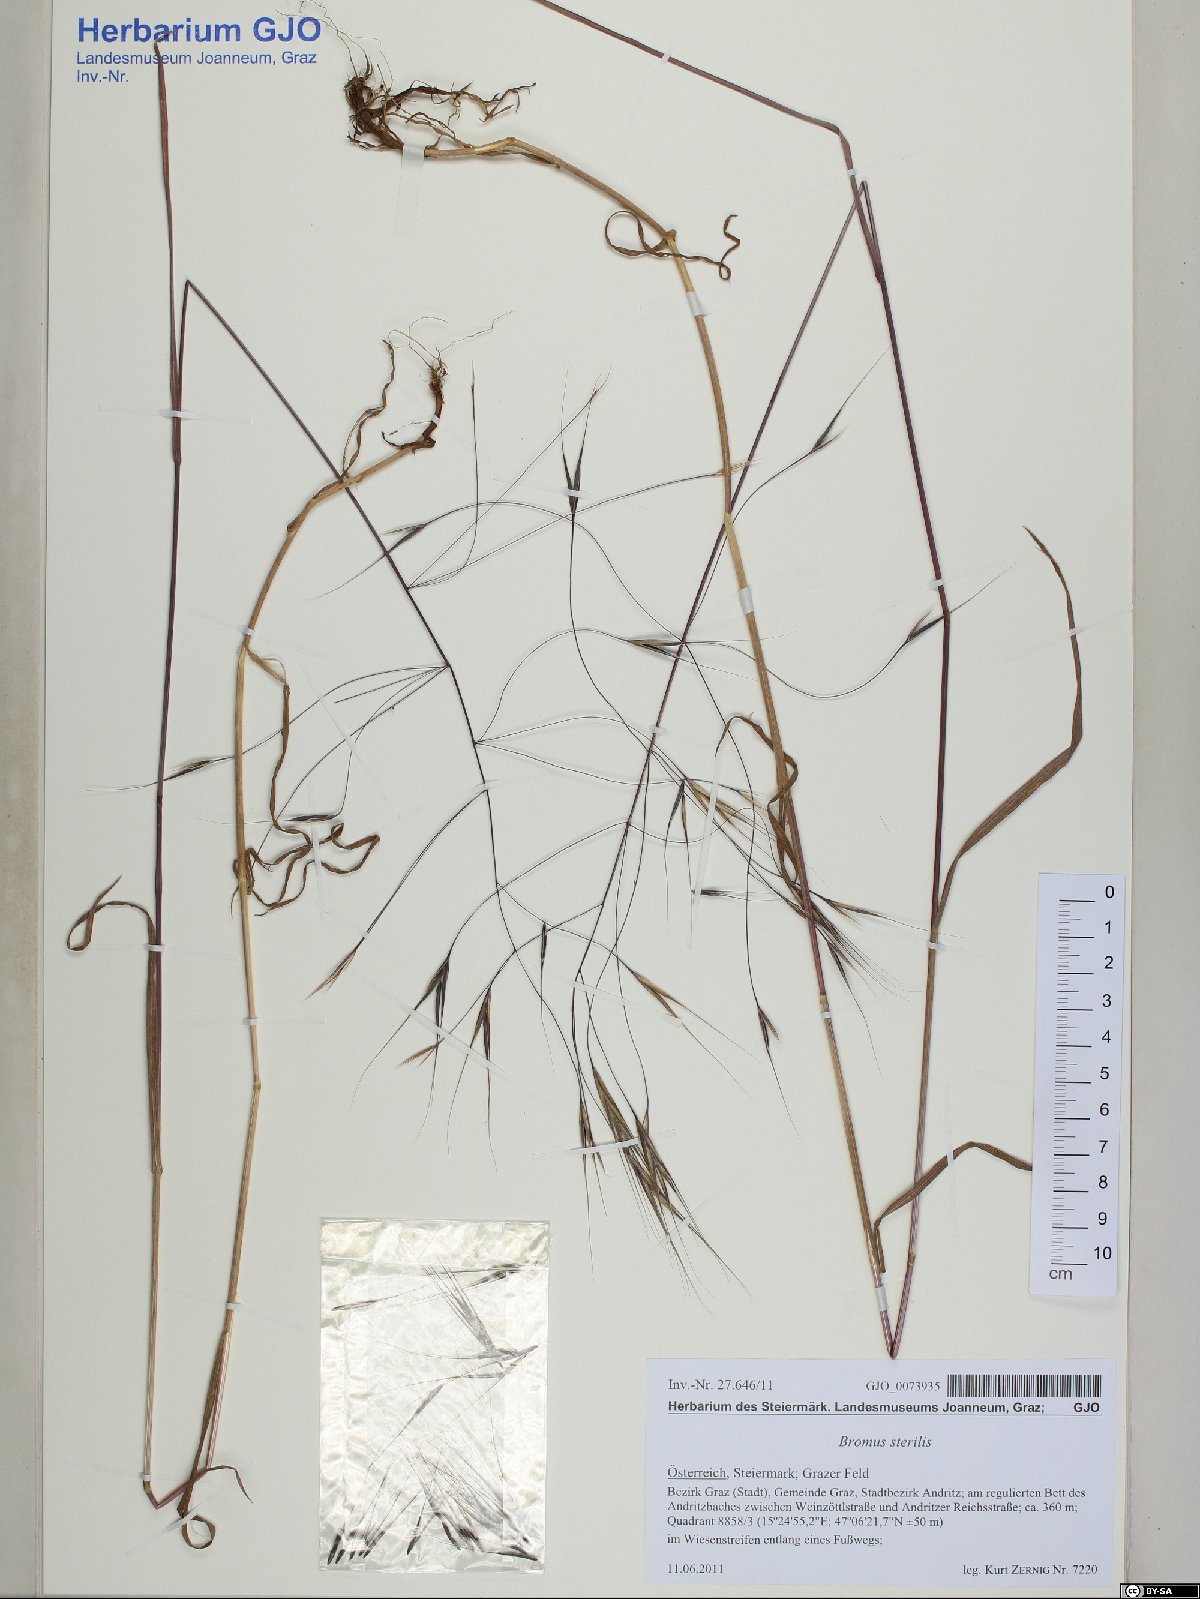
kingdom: Plantae
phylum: Tracheophyta
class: Liliopsida
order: Poales
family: Poaceae
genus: Bromus
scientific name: Bromus sterilis
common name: Poverty brome
